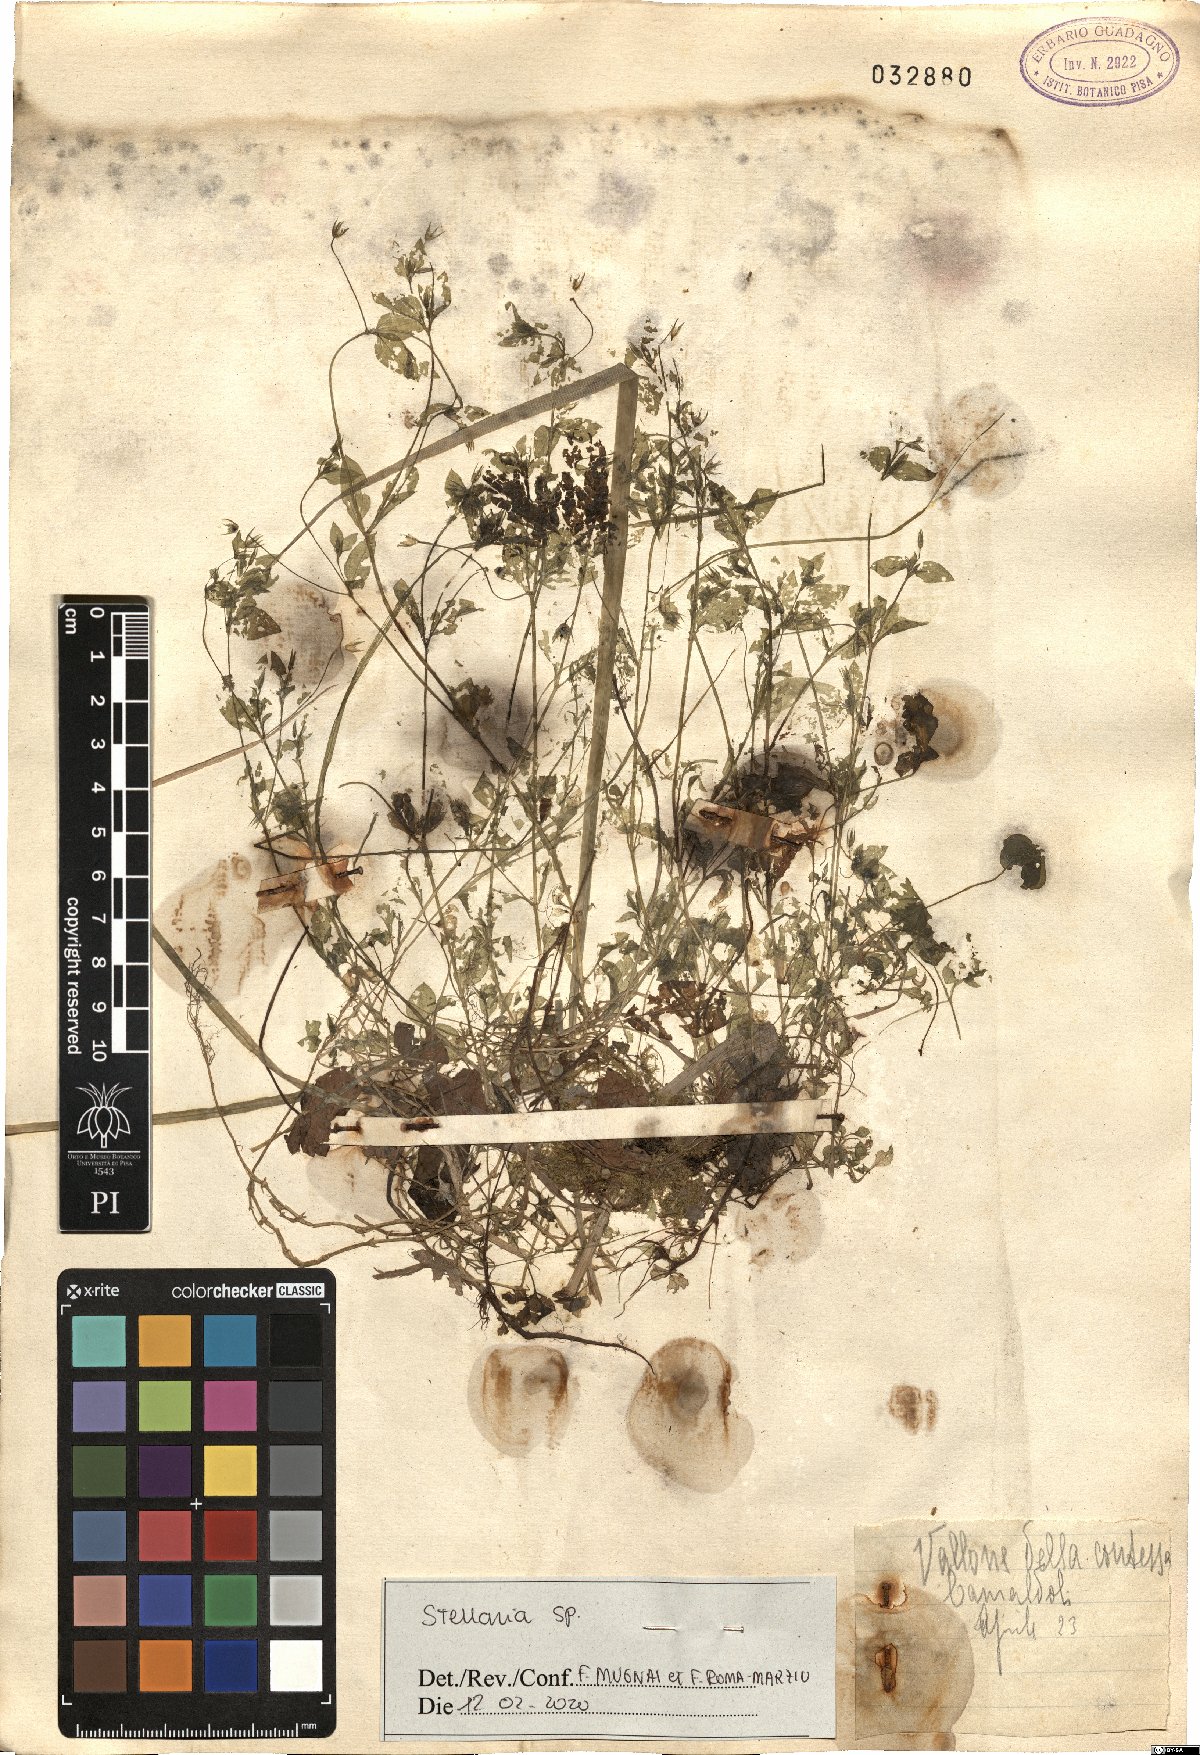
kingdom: Plantae
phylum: Tracheophyta
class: Magnoliopsida
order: Caryophyllales
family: Caryophyllaceae
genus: Stellaria
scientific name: Stellaria
